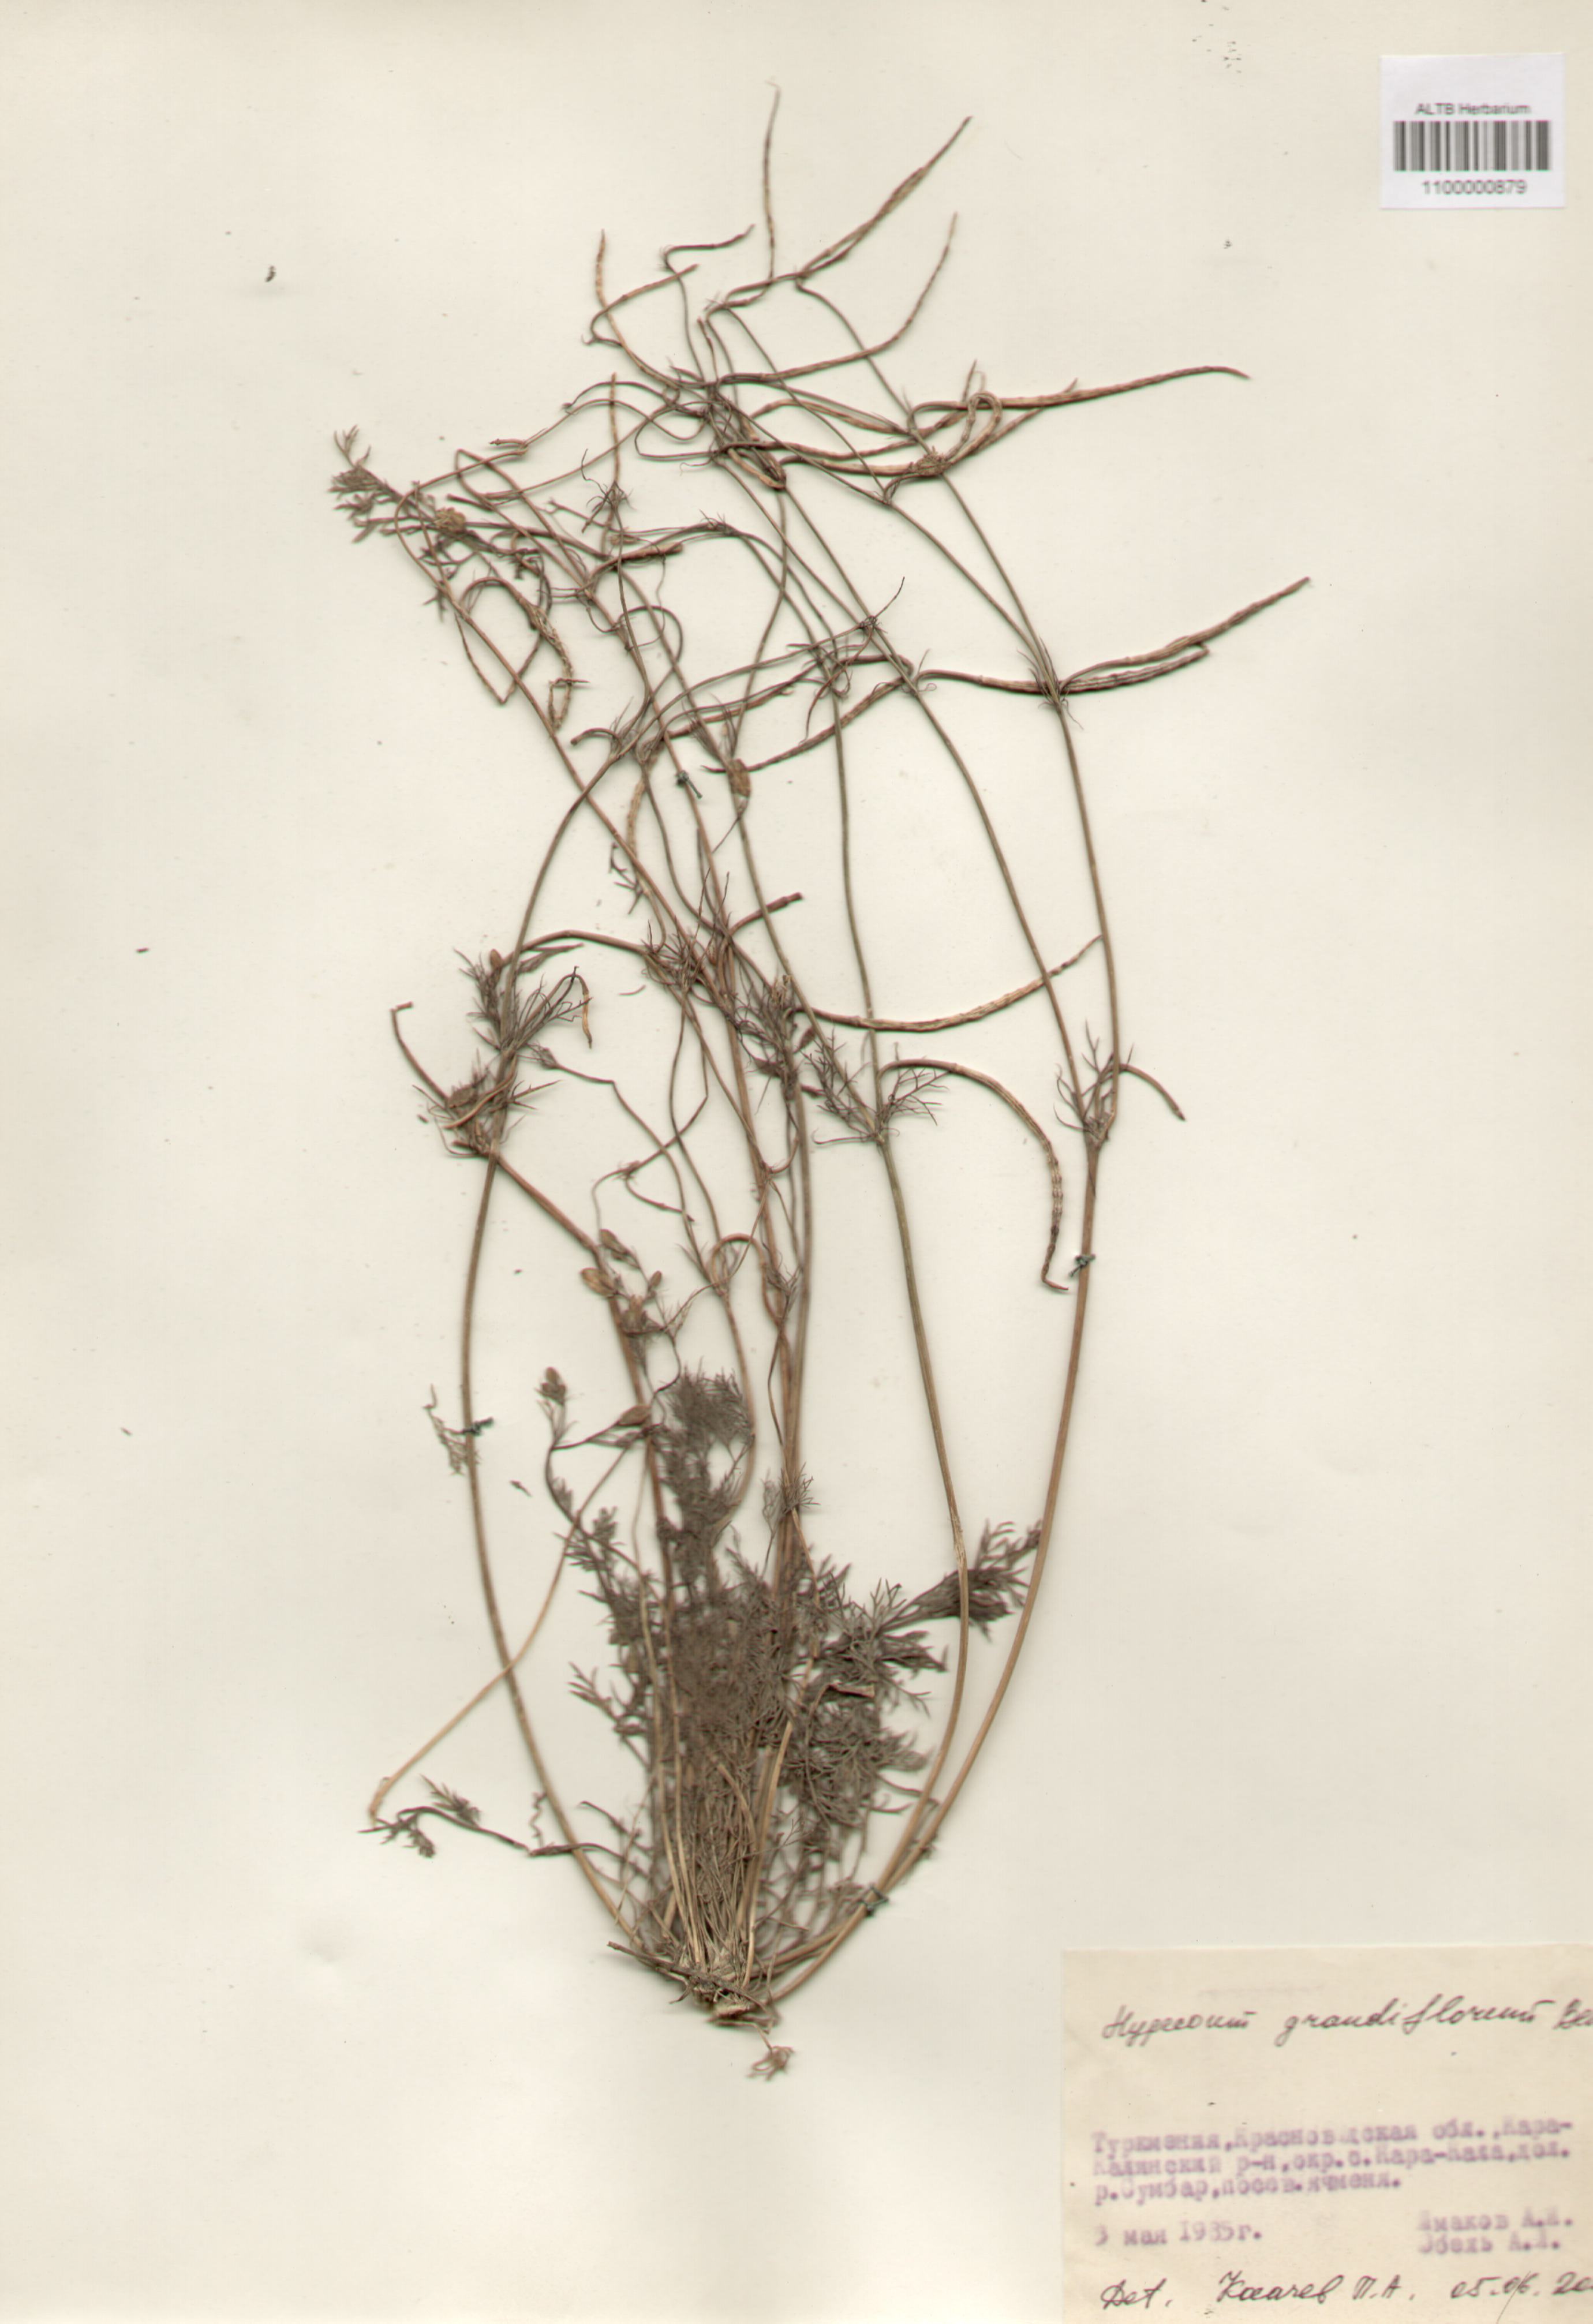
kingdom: Plantae
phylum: Tracheophyta
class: Magnoliopsida
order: Ranunculales
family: Papaveraceae
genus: Hypecoum
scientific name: Hypecoum imberbe
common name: Sicklefruit hypecoum
